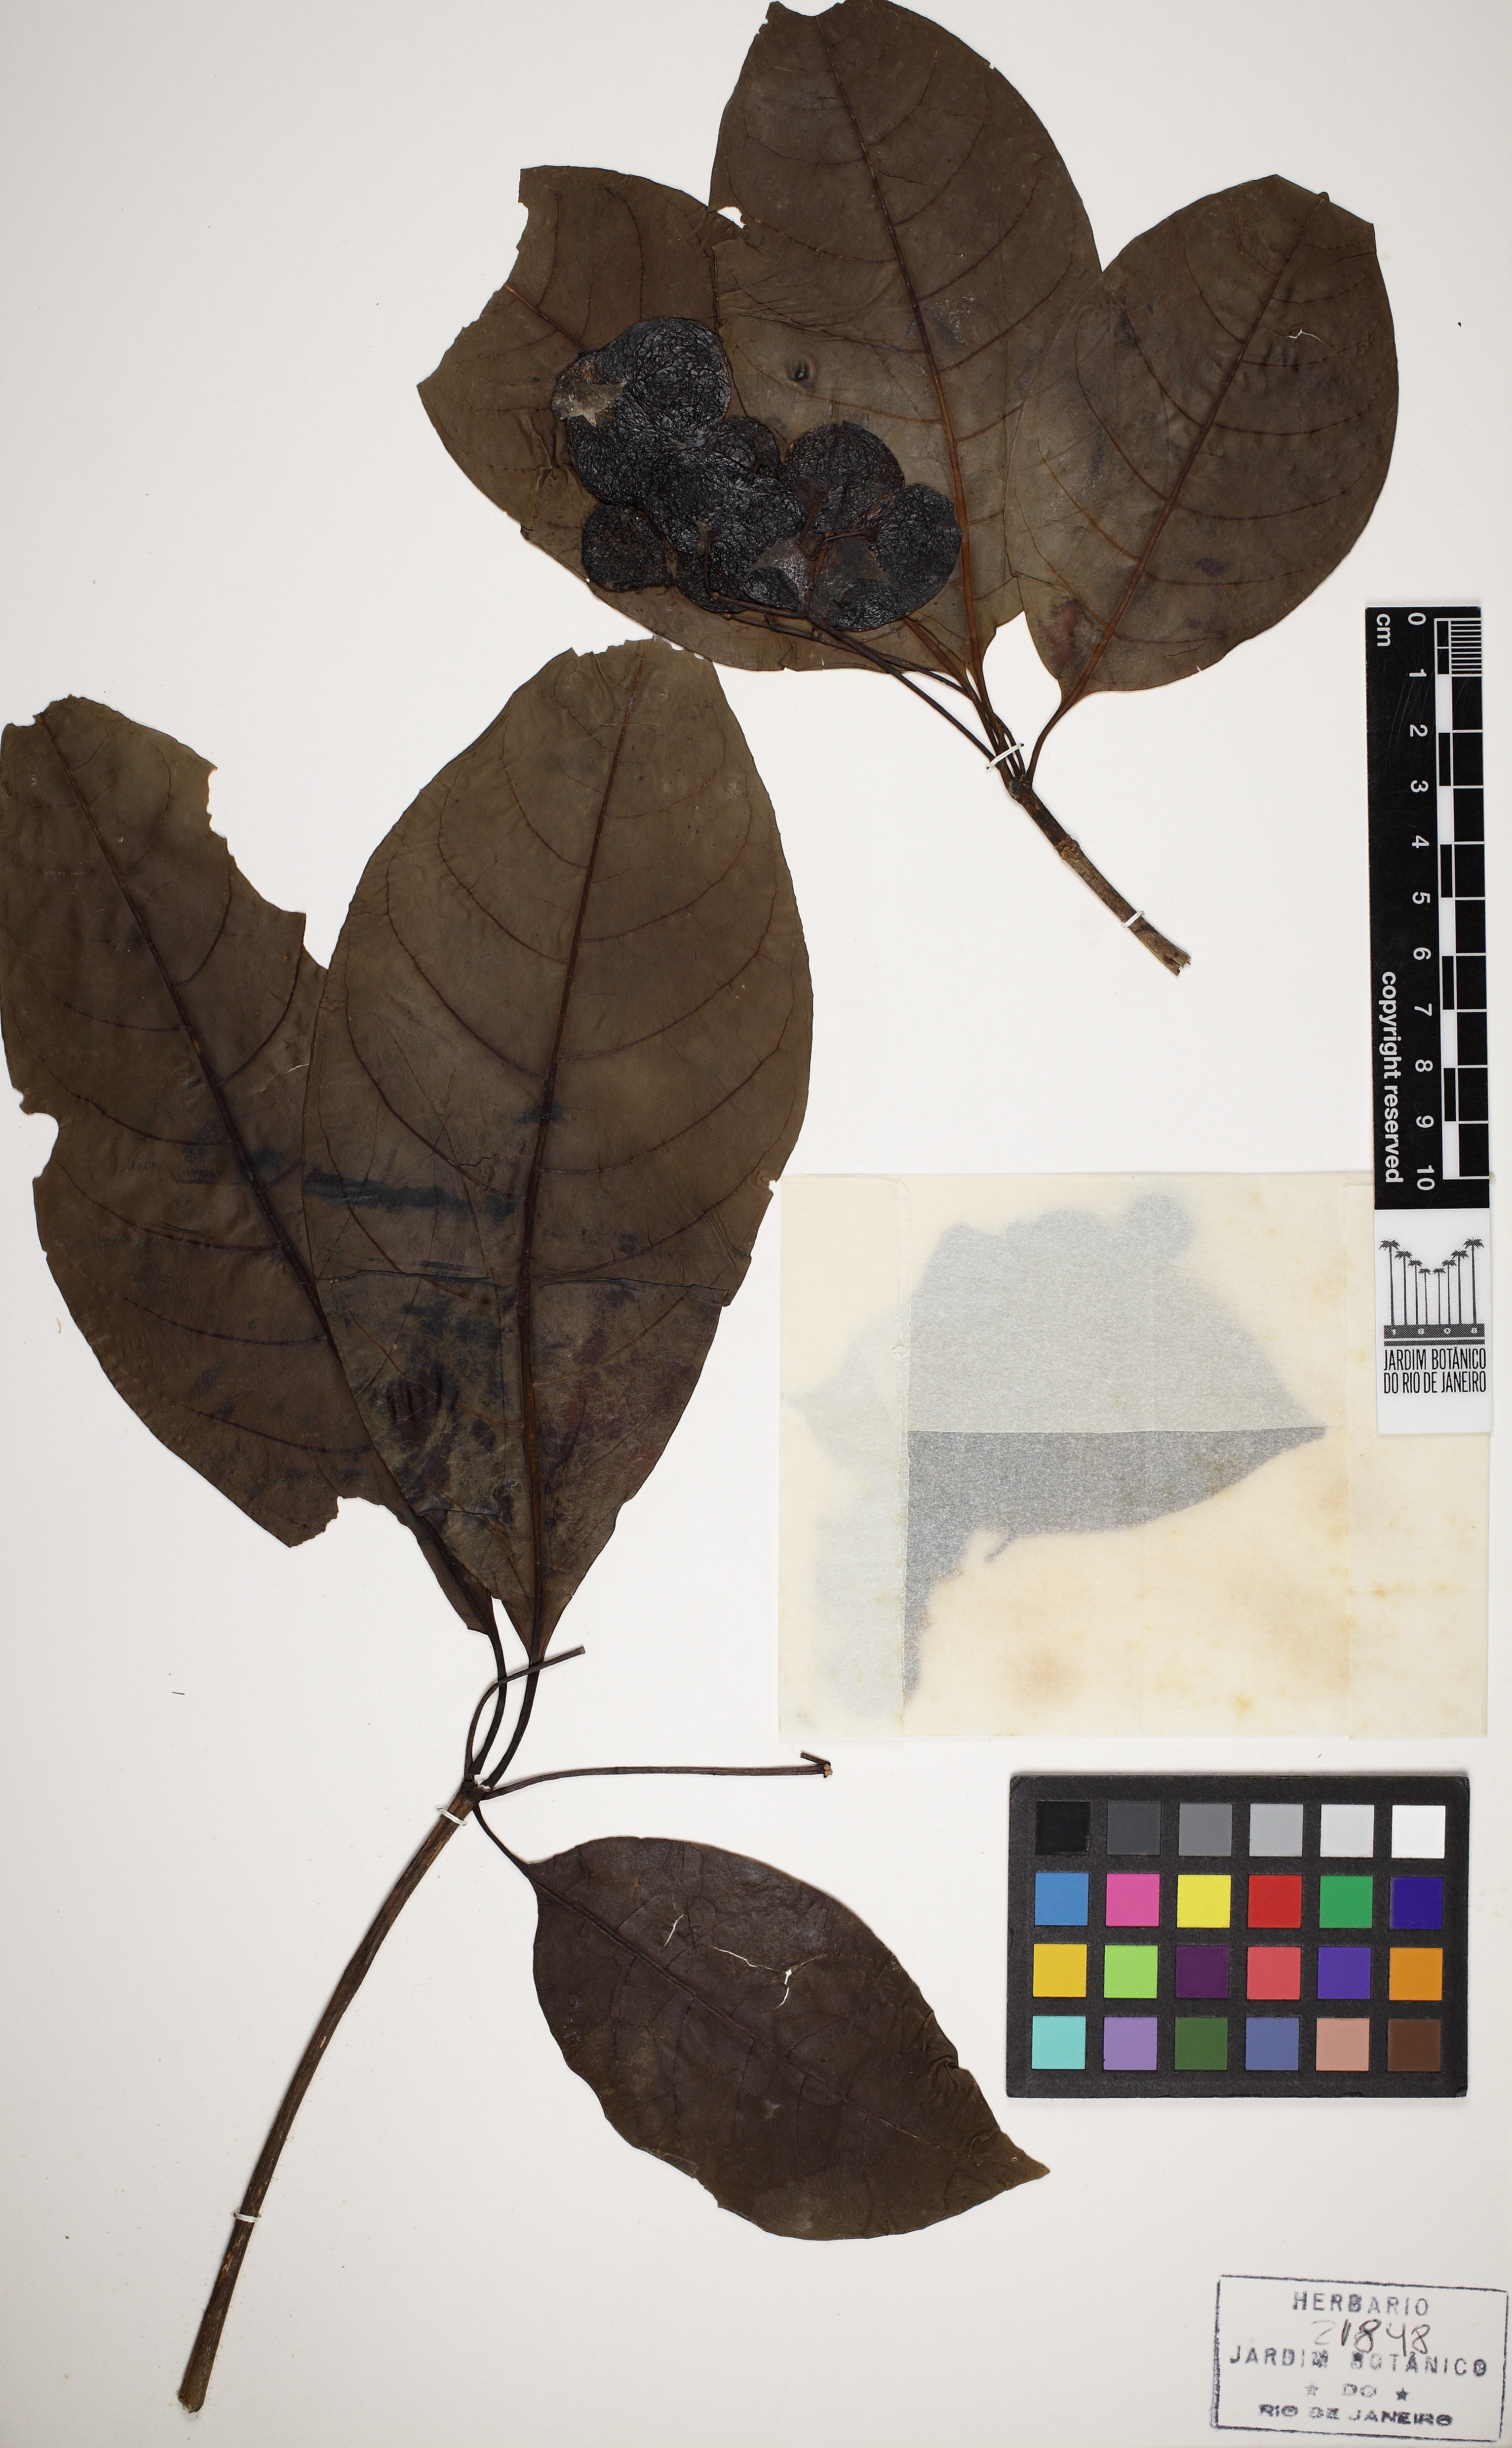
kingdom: Plantae
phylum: Tracheophyta
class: Magnoliopsida
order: Gentianales
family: Apocynaceae
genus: Rauvolfia
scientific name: Rauvolfia grandiflora
